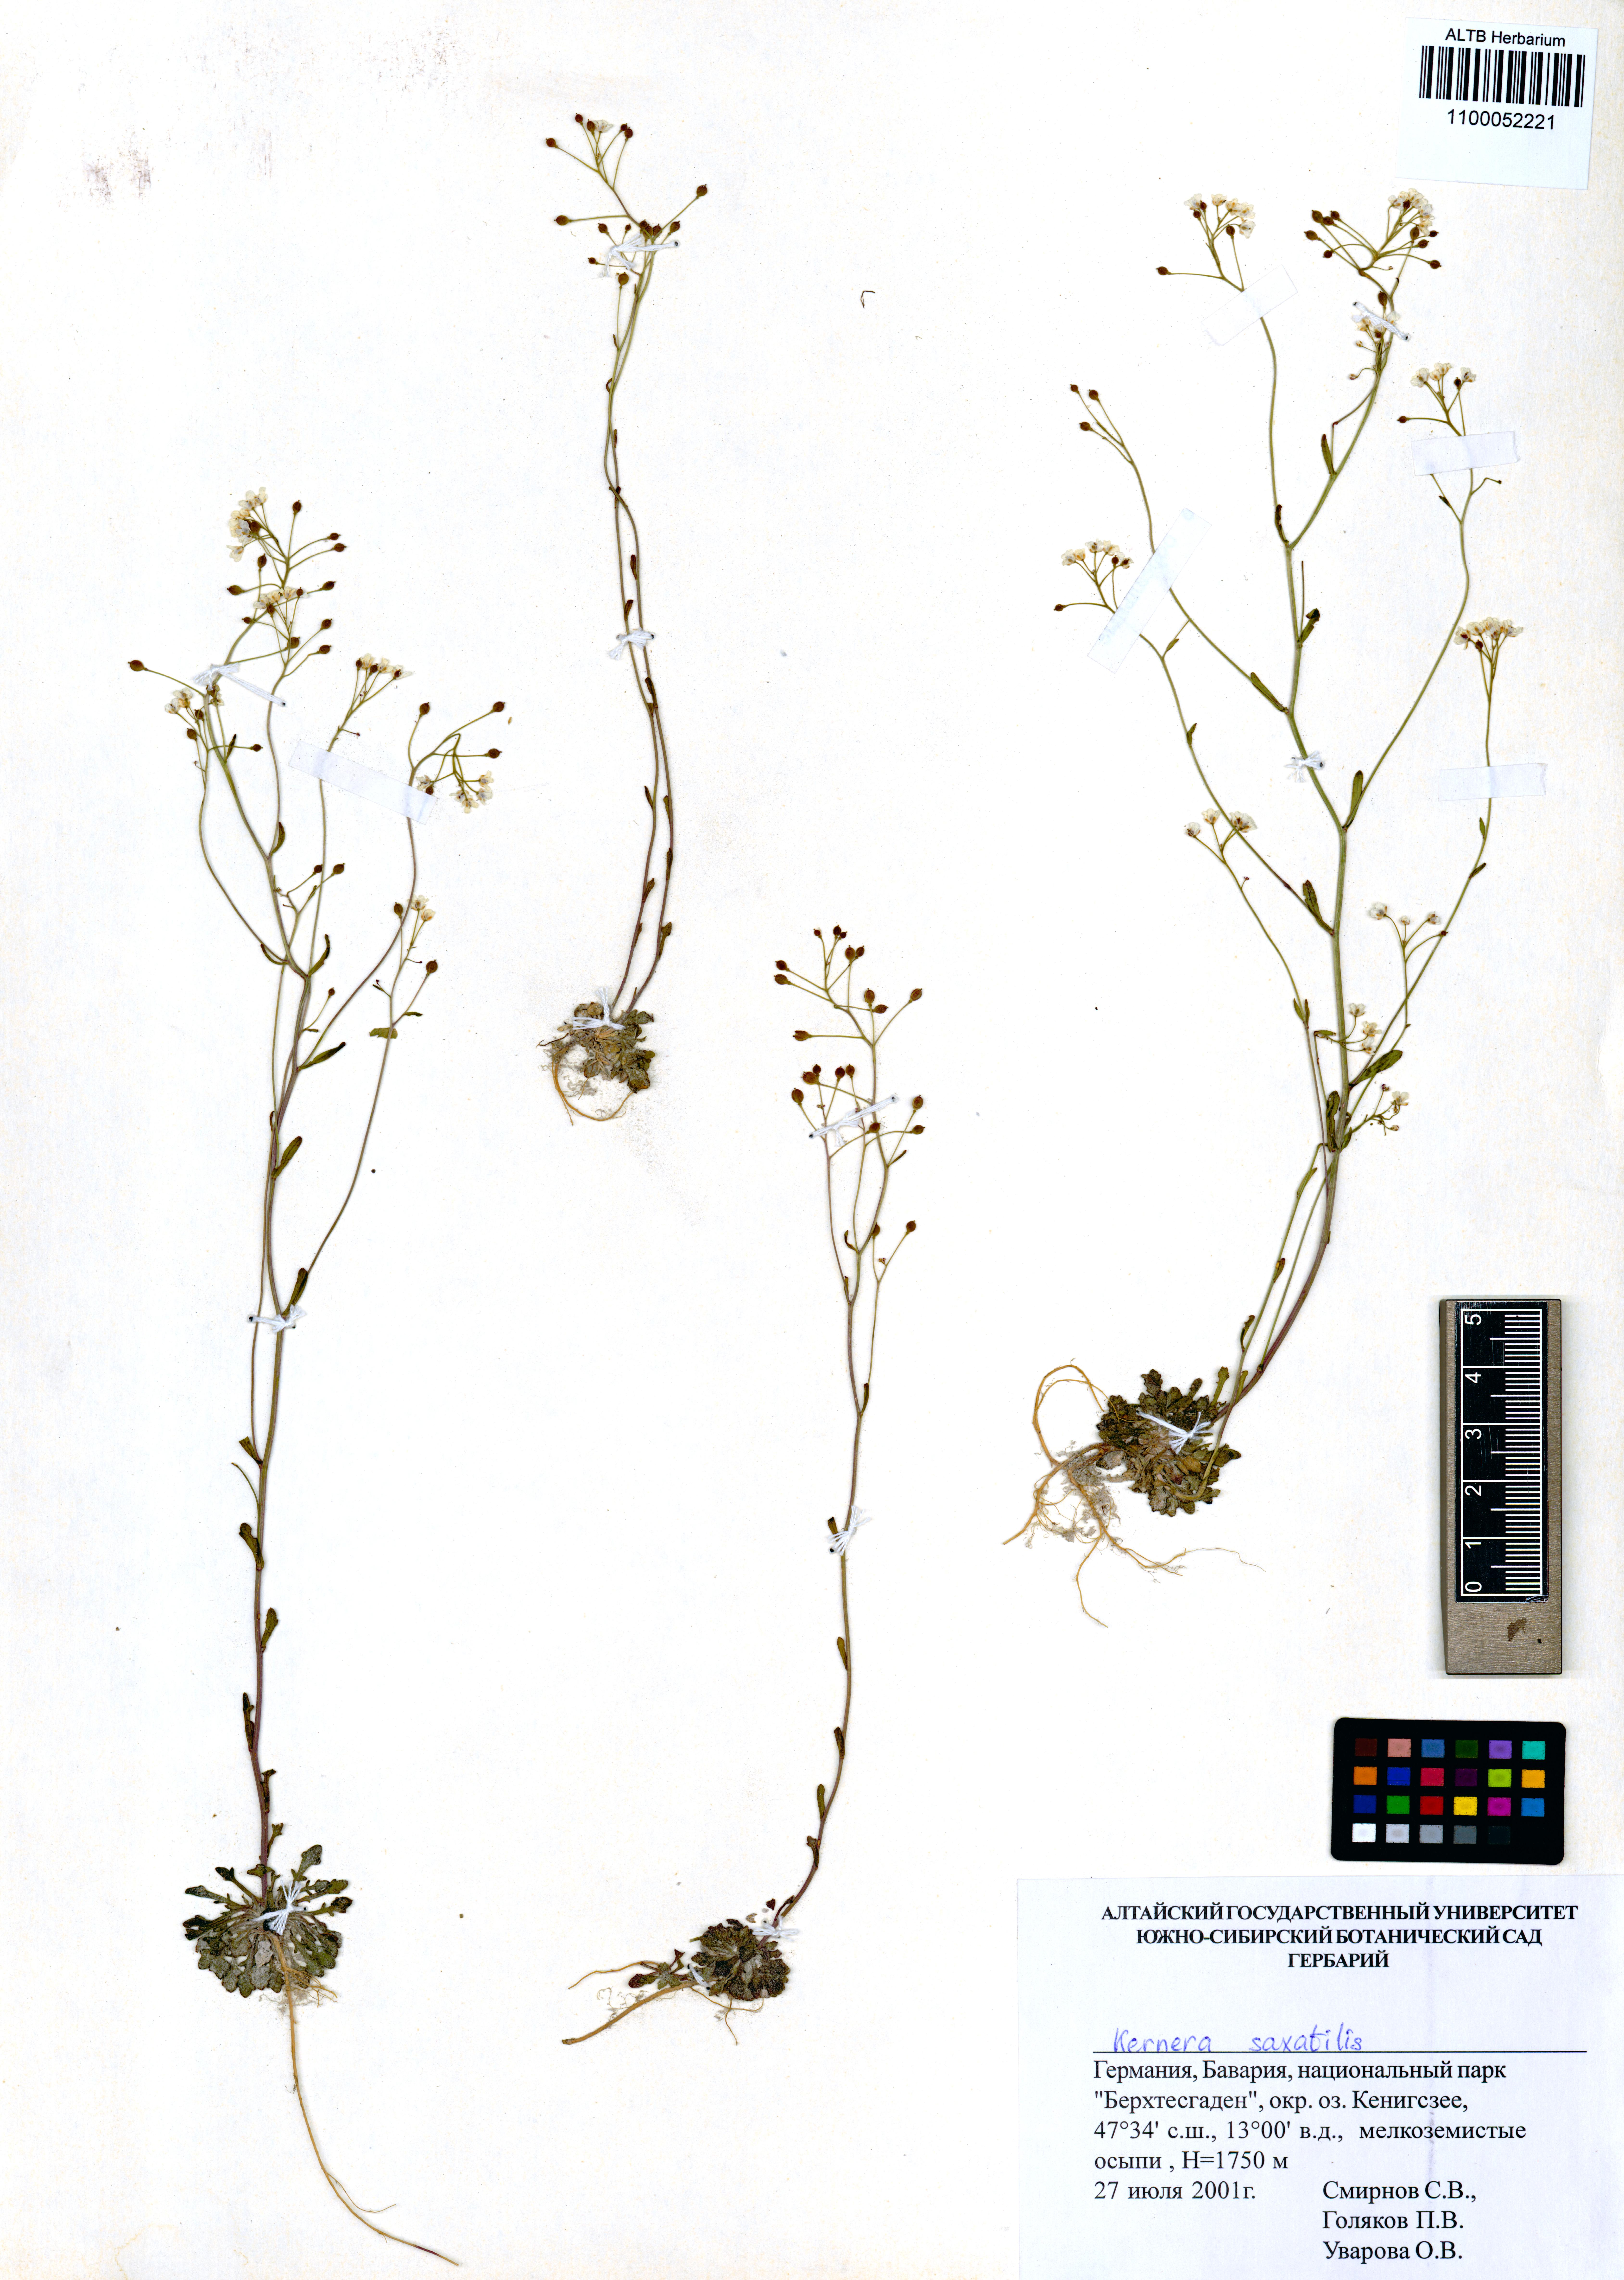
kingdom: Plantae
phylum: Tracheophyta
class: Magnoliopsida
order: Brassicales
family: Brassicaceae
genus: Kernera
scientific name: Kernera saxatilis
